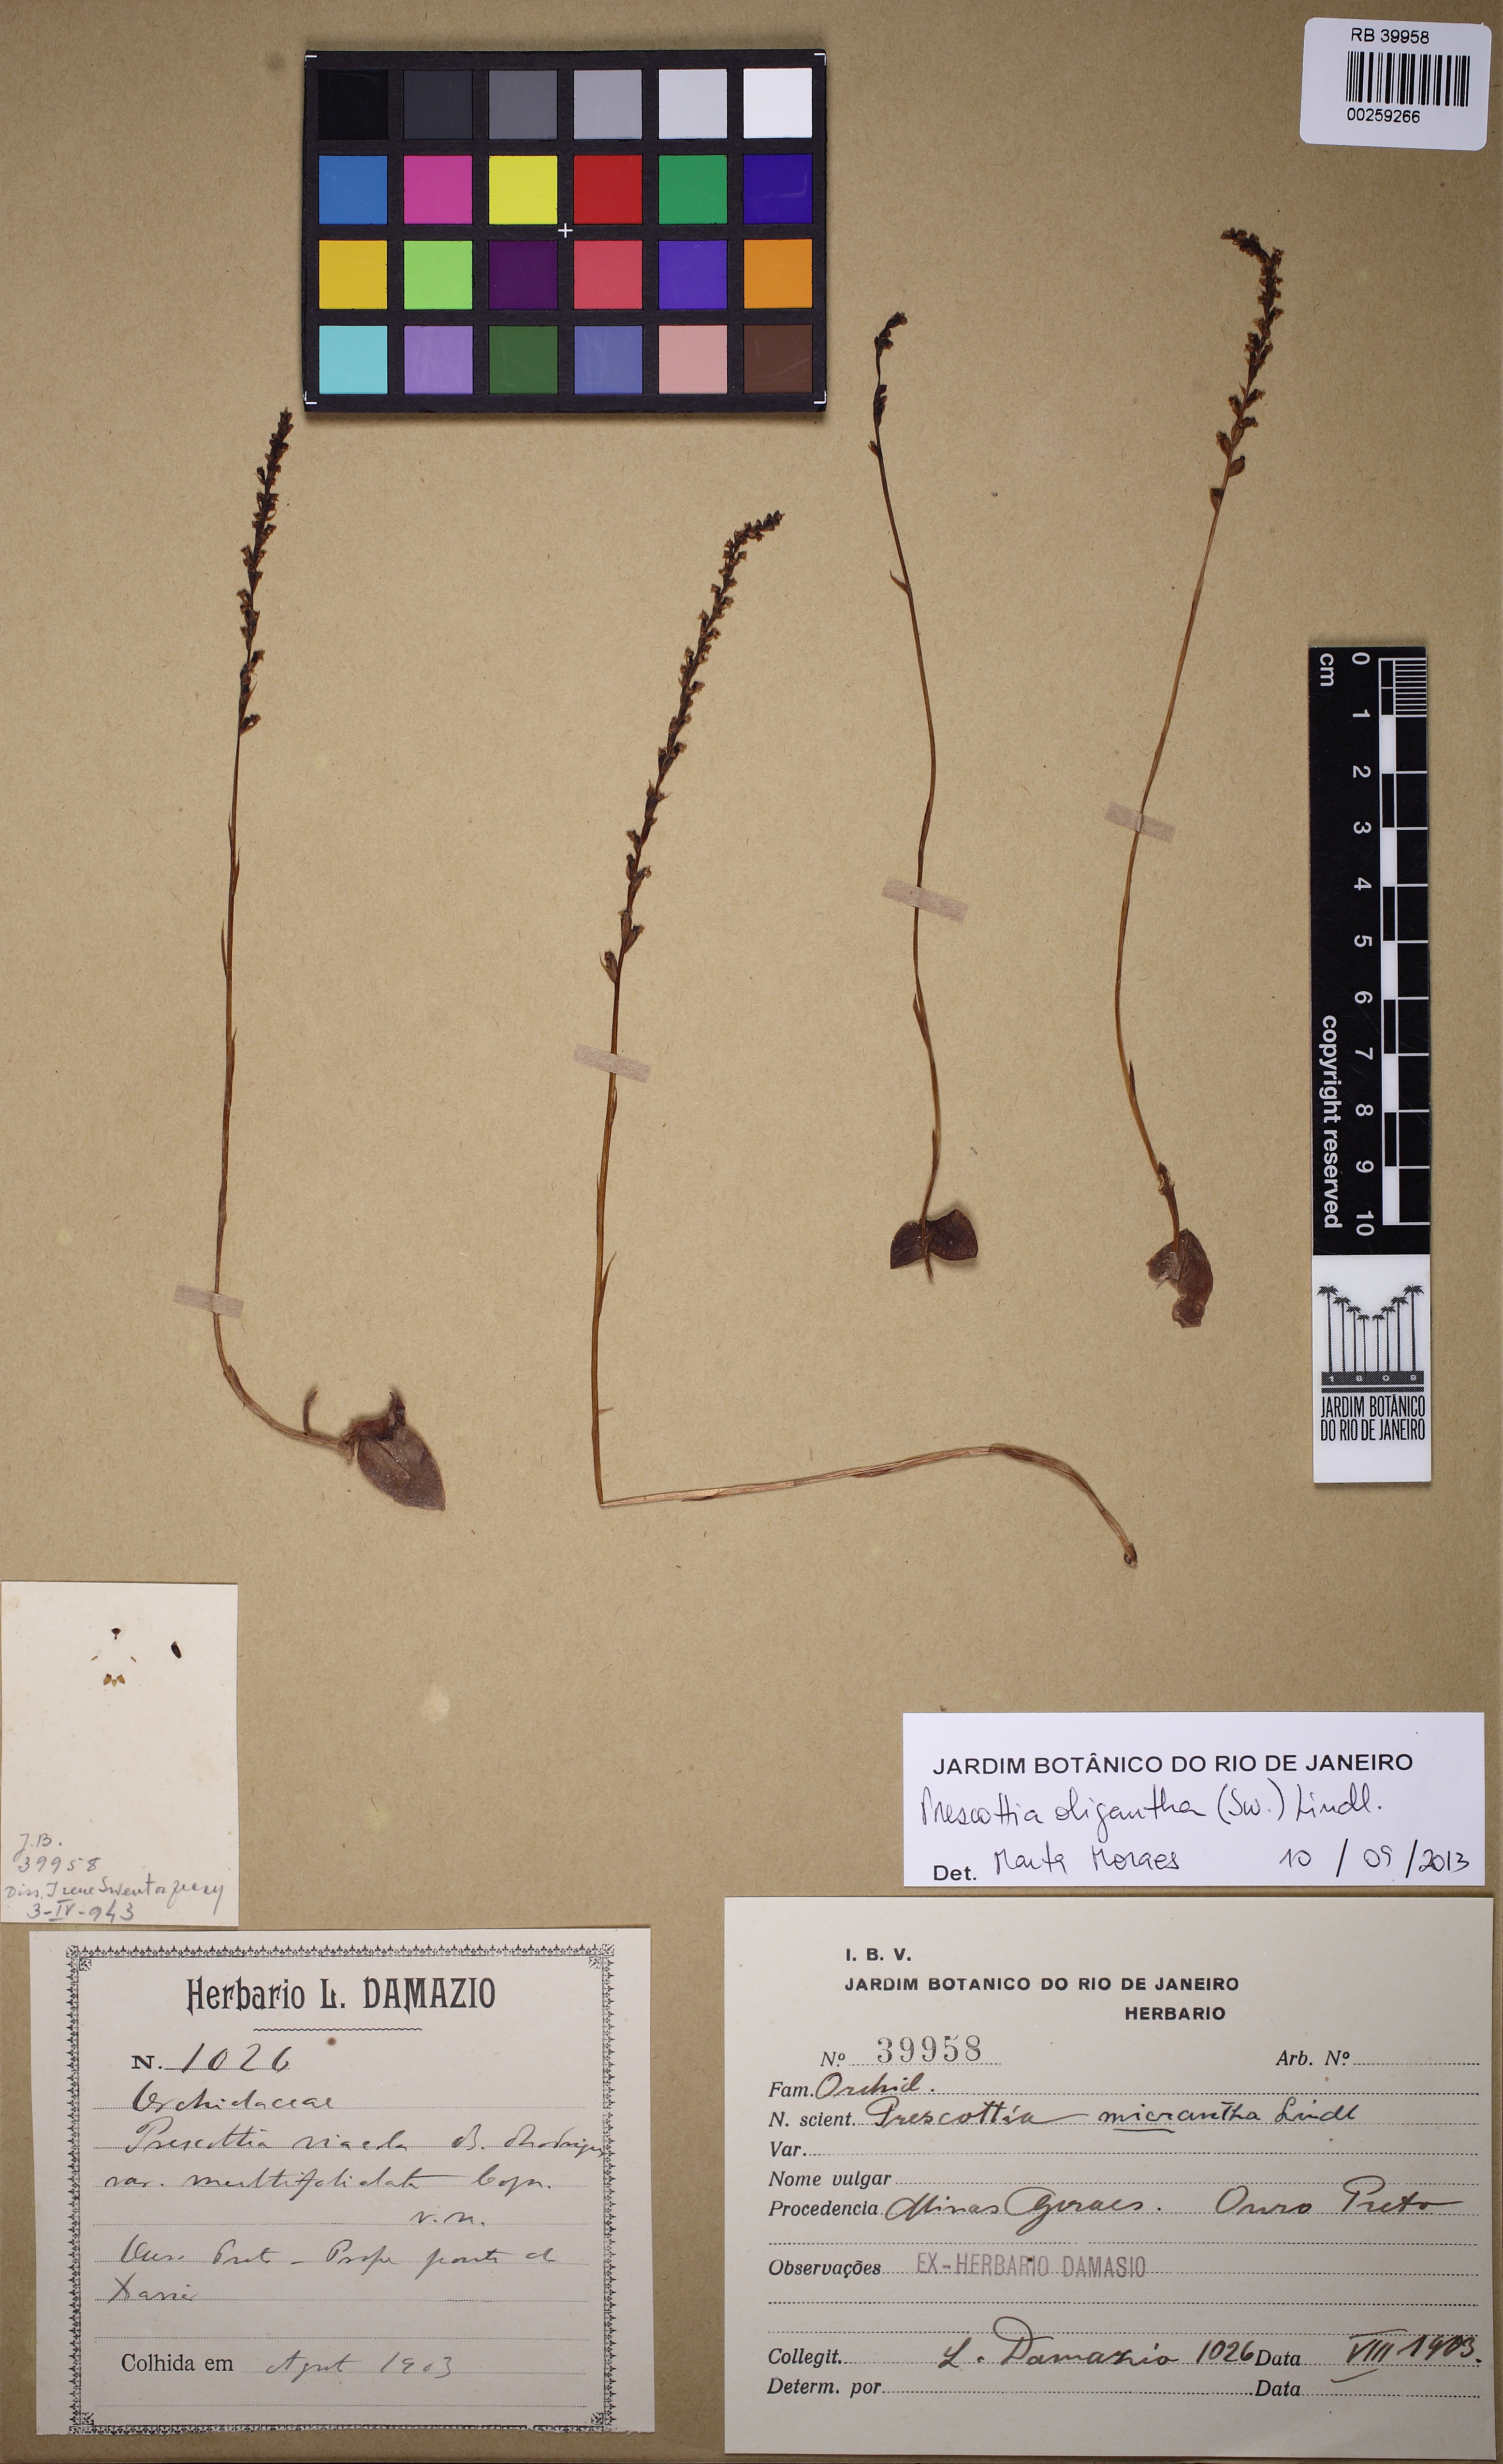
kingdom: Plantae
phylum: Tracheophyta
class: Liliopsida
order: Asparagales
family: Orchidaceae
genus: Prescottia
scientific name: Prescottia oligantha
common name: Small prescott orchid
